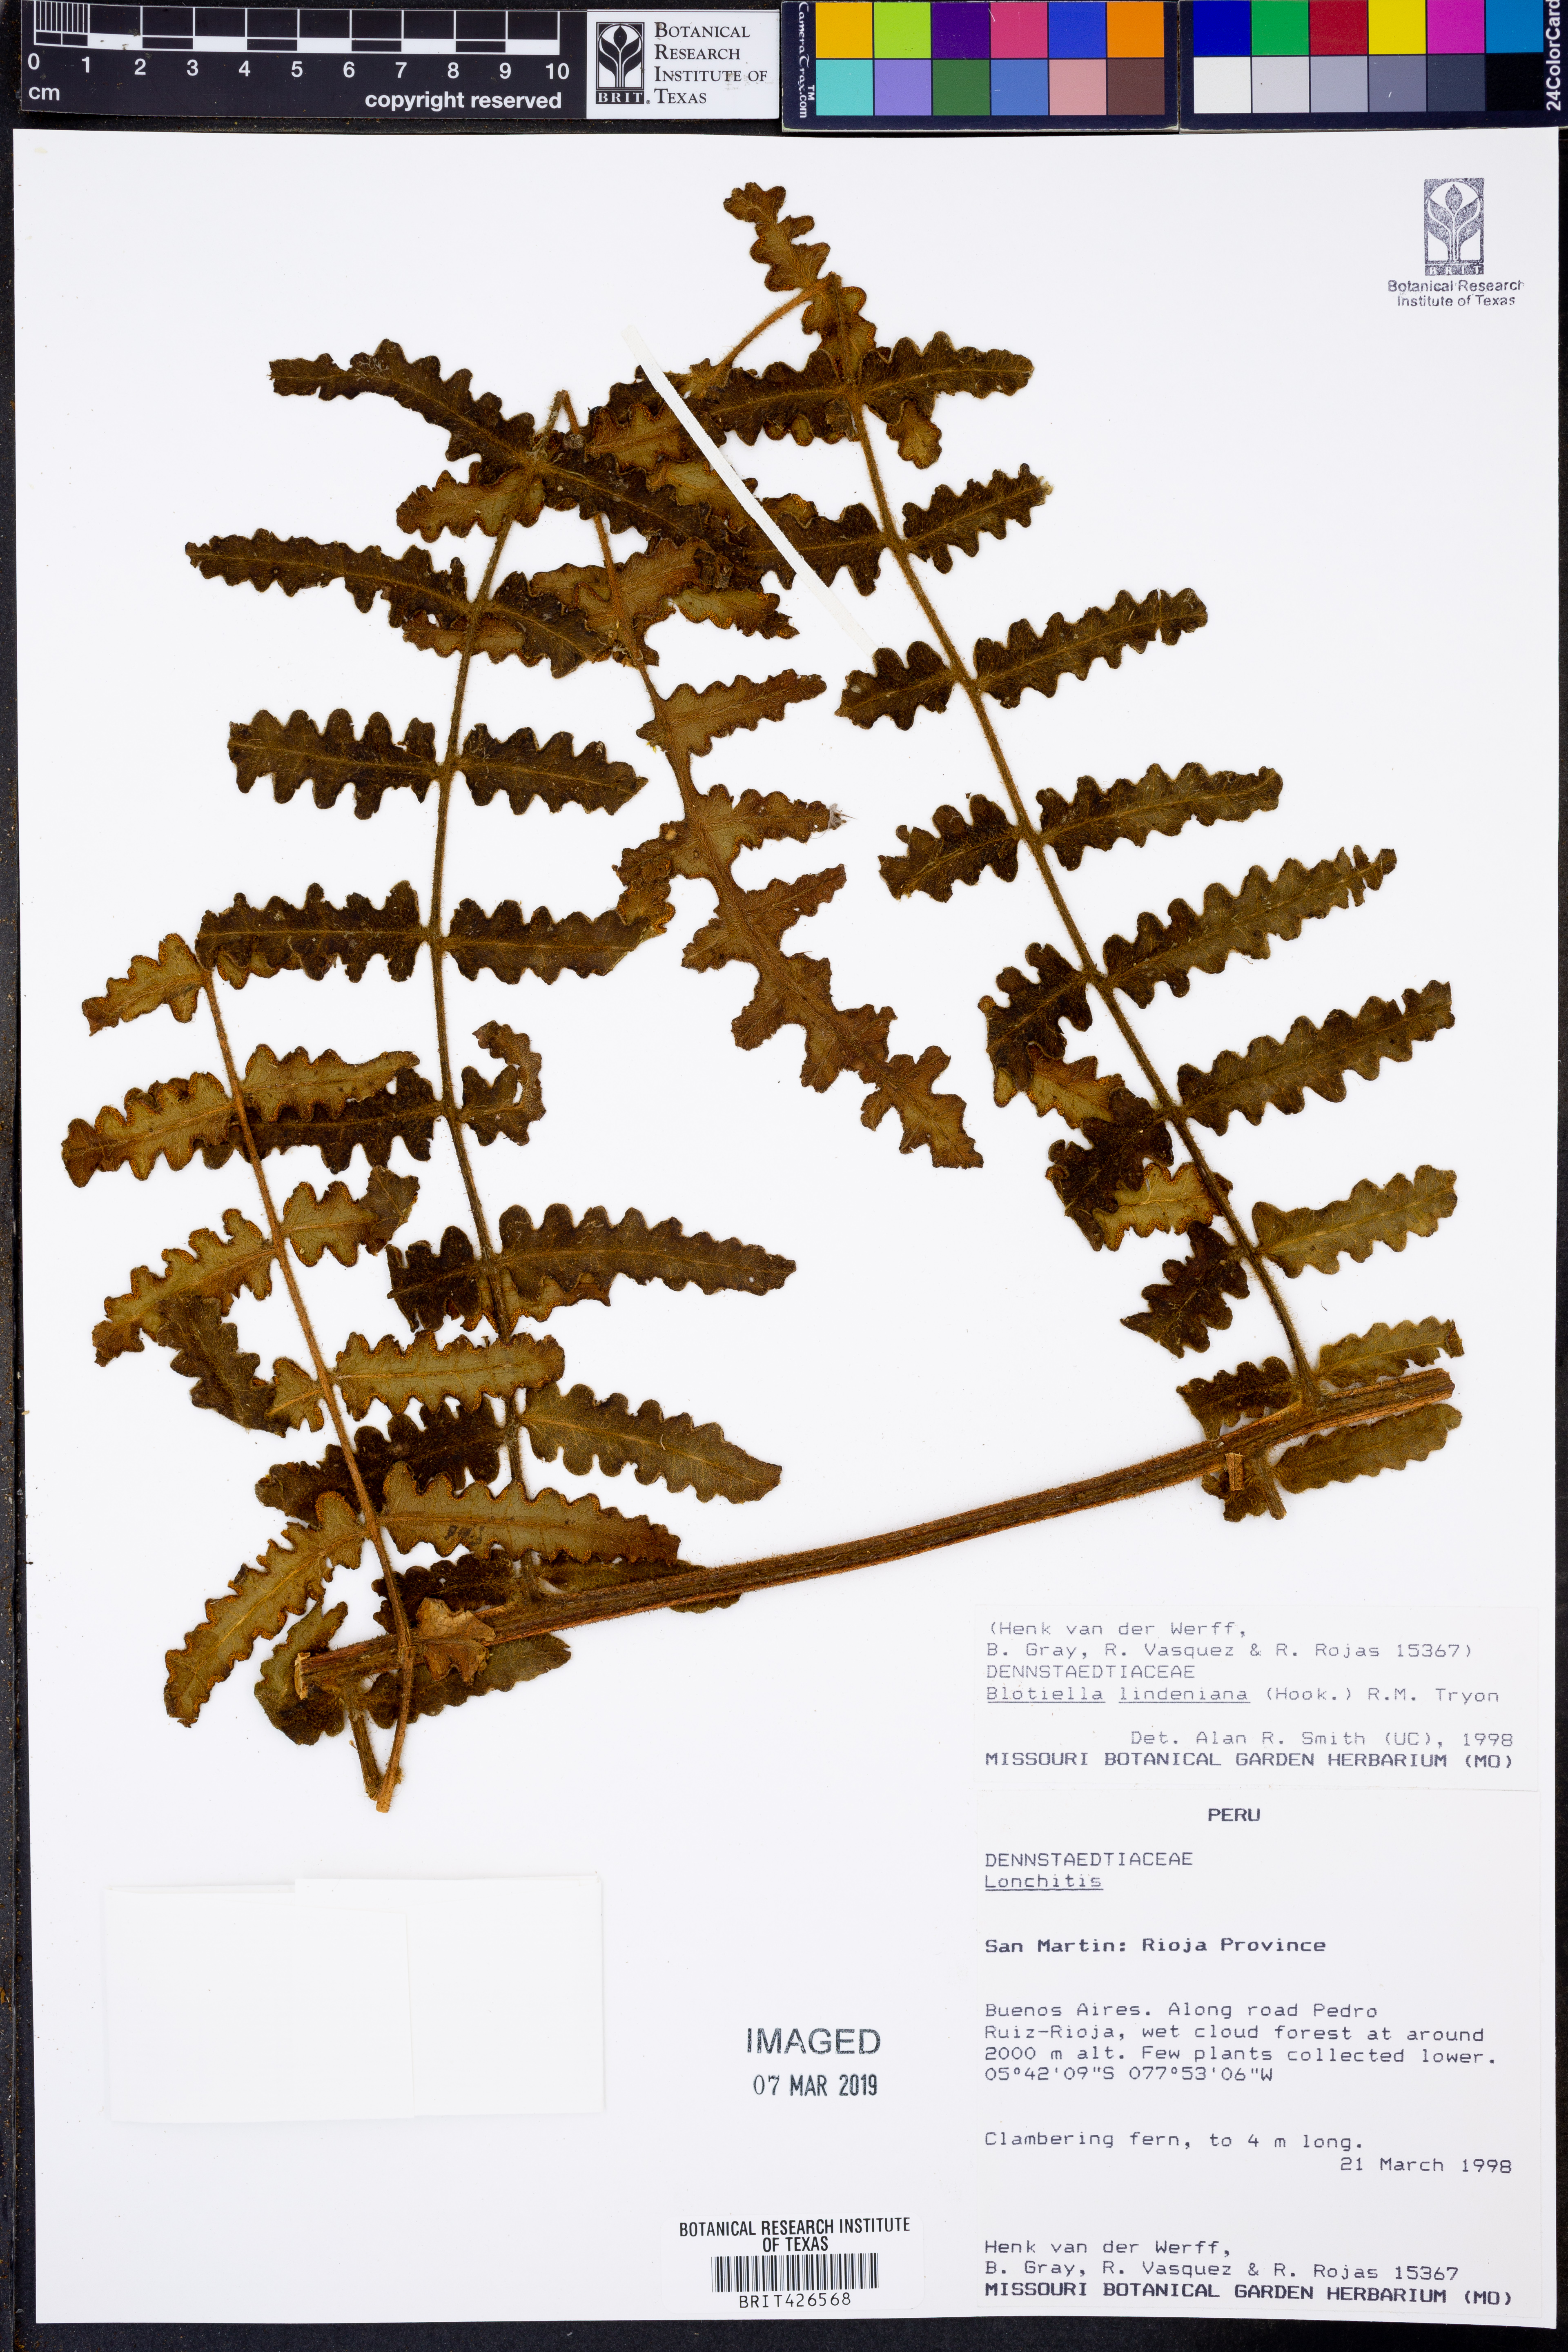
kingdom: Plantae
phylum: Tracheophyta
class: Polypodiopsida
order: Polypodiales
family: Dennstaedtiaceae
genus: Blotiella
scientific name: Blotiella aurita
